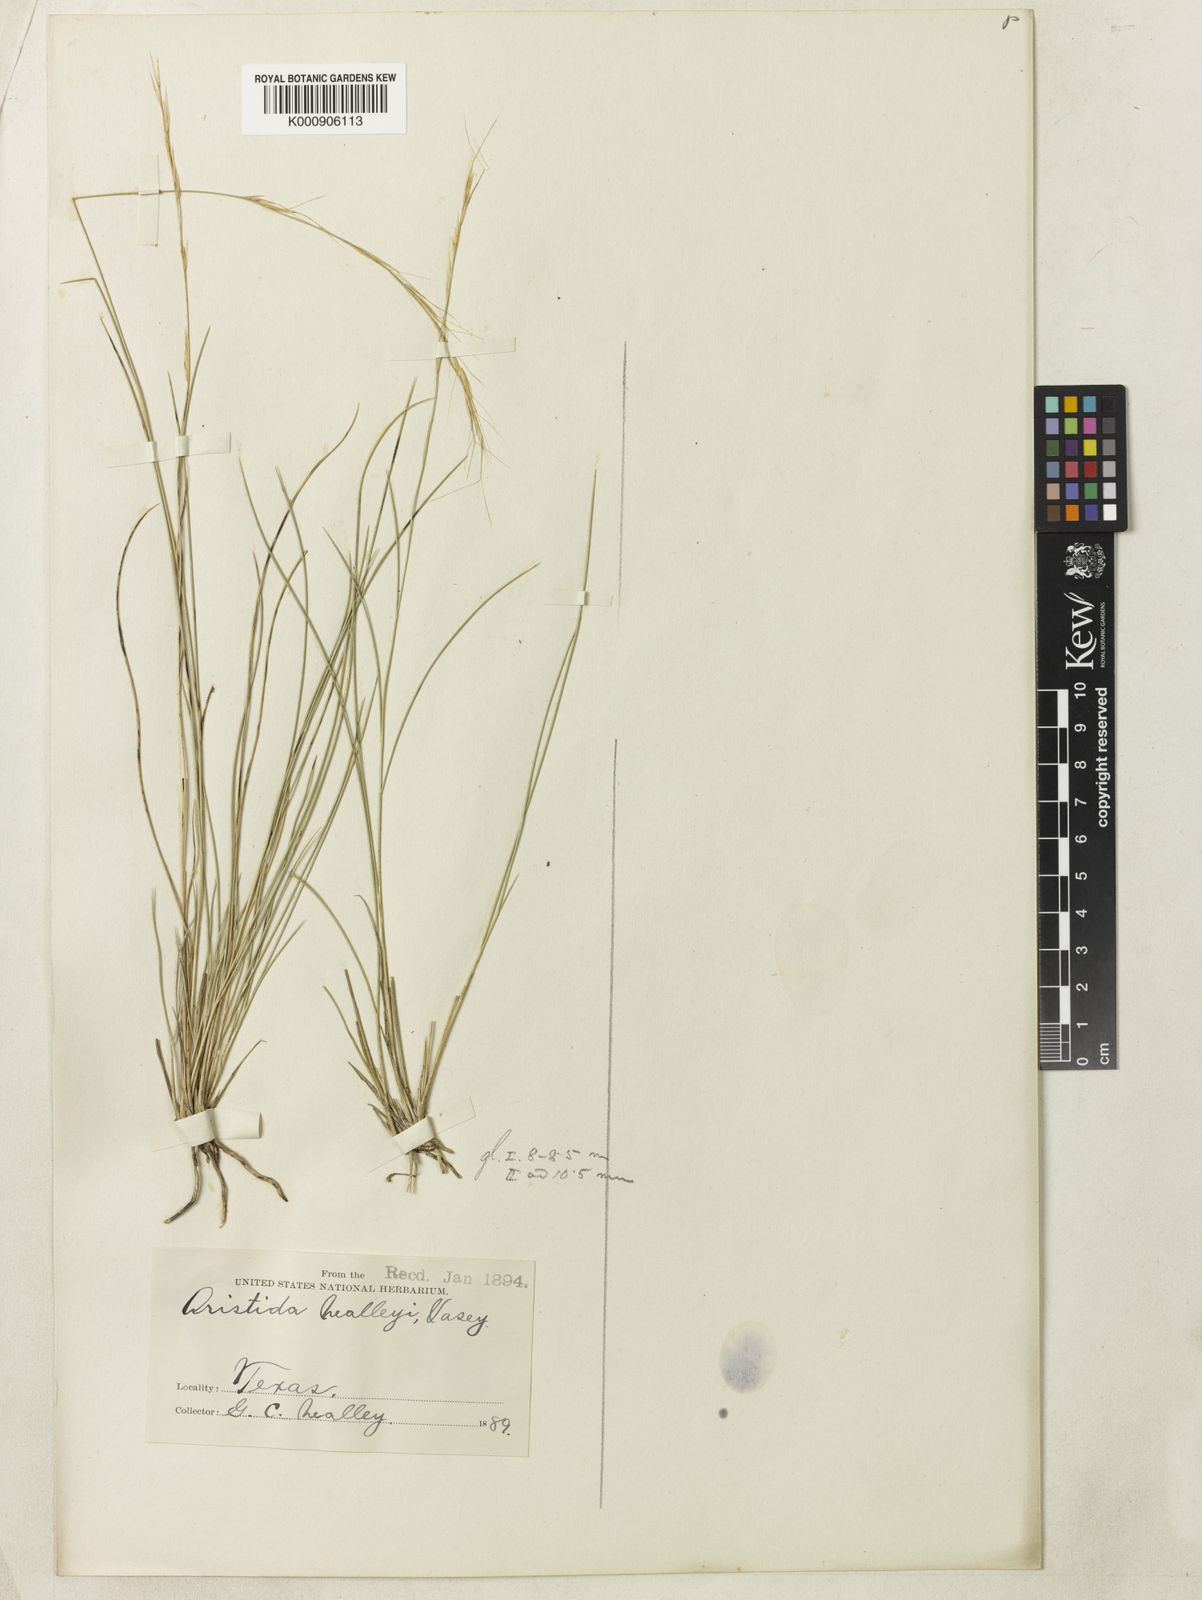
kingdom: Plantae
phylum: Tracheophyta
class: Liliopsida
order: Poales
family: Poaceae
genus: Aristida
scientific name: Aristida glauca
